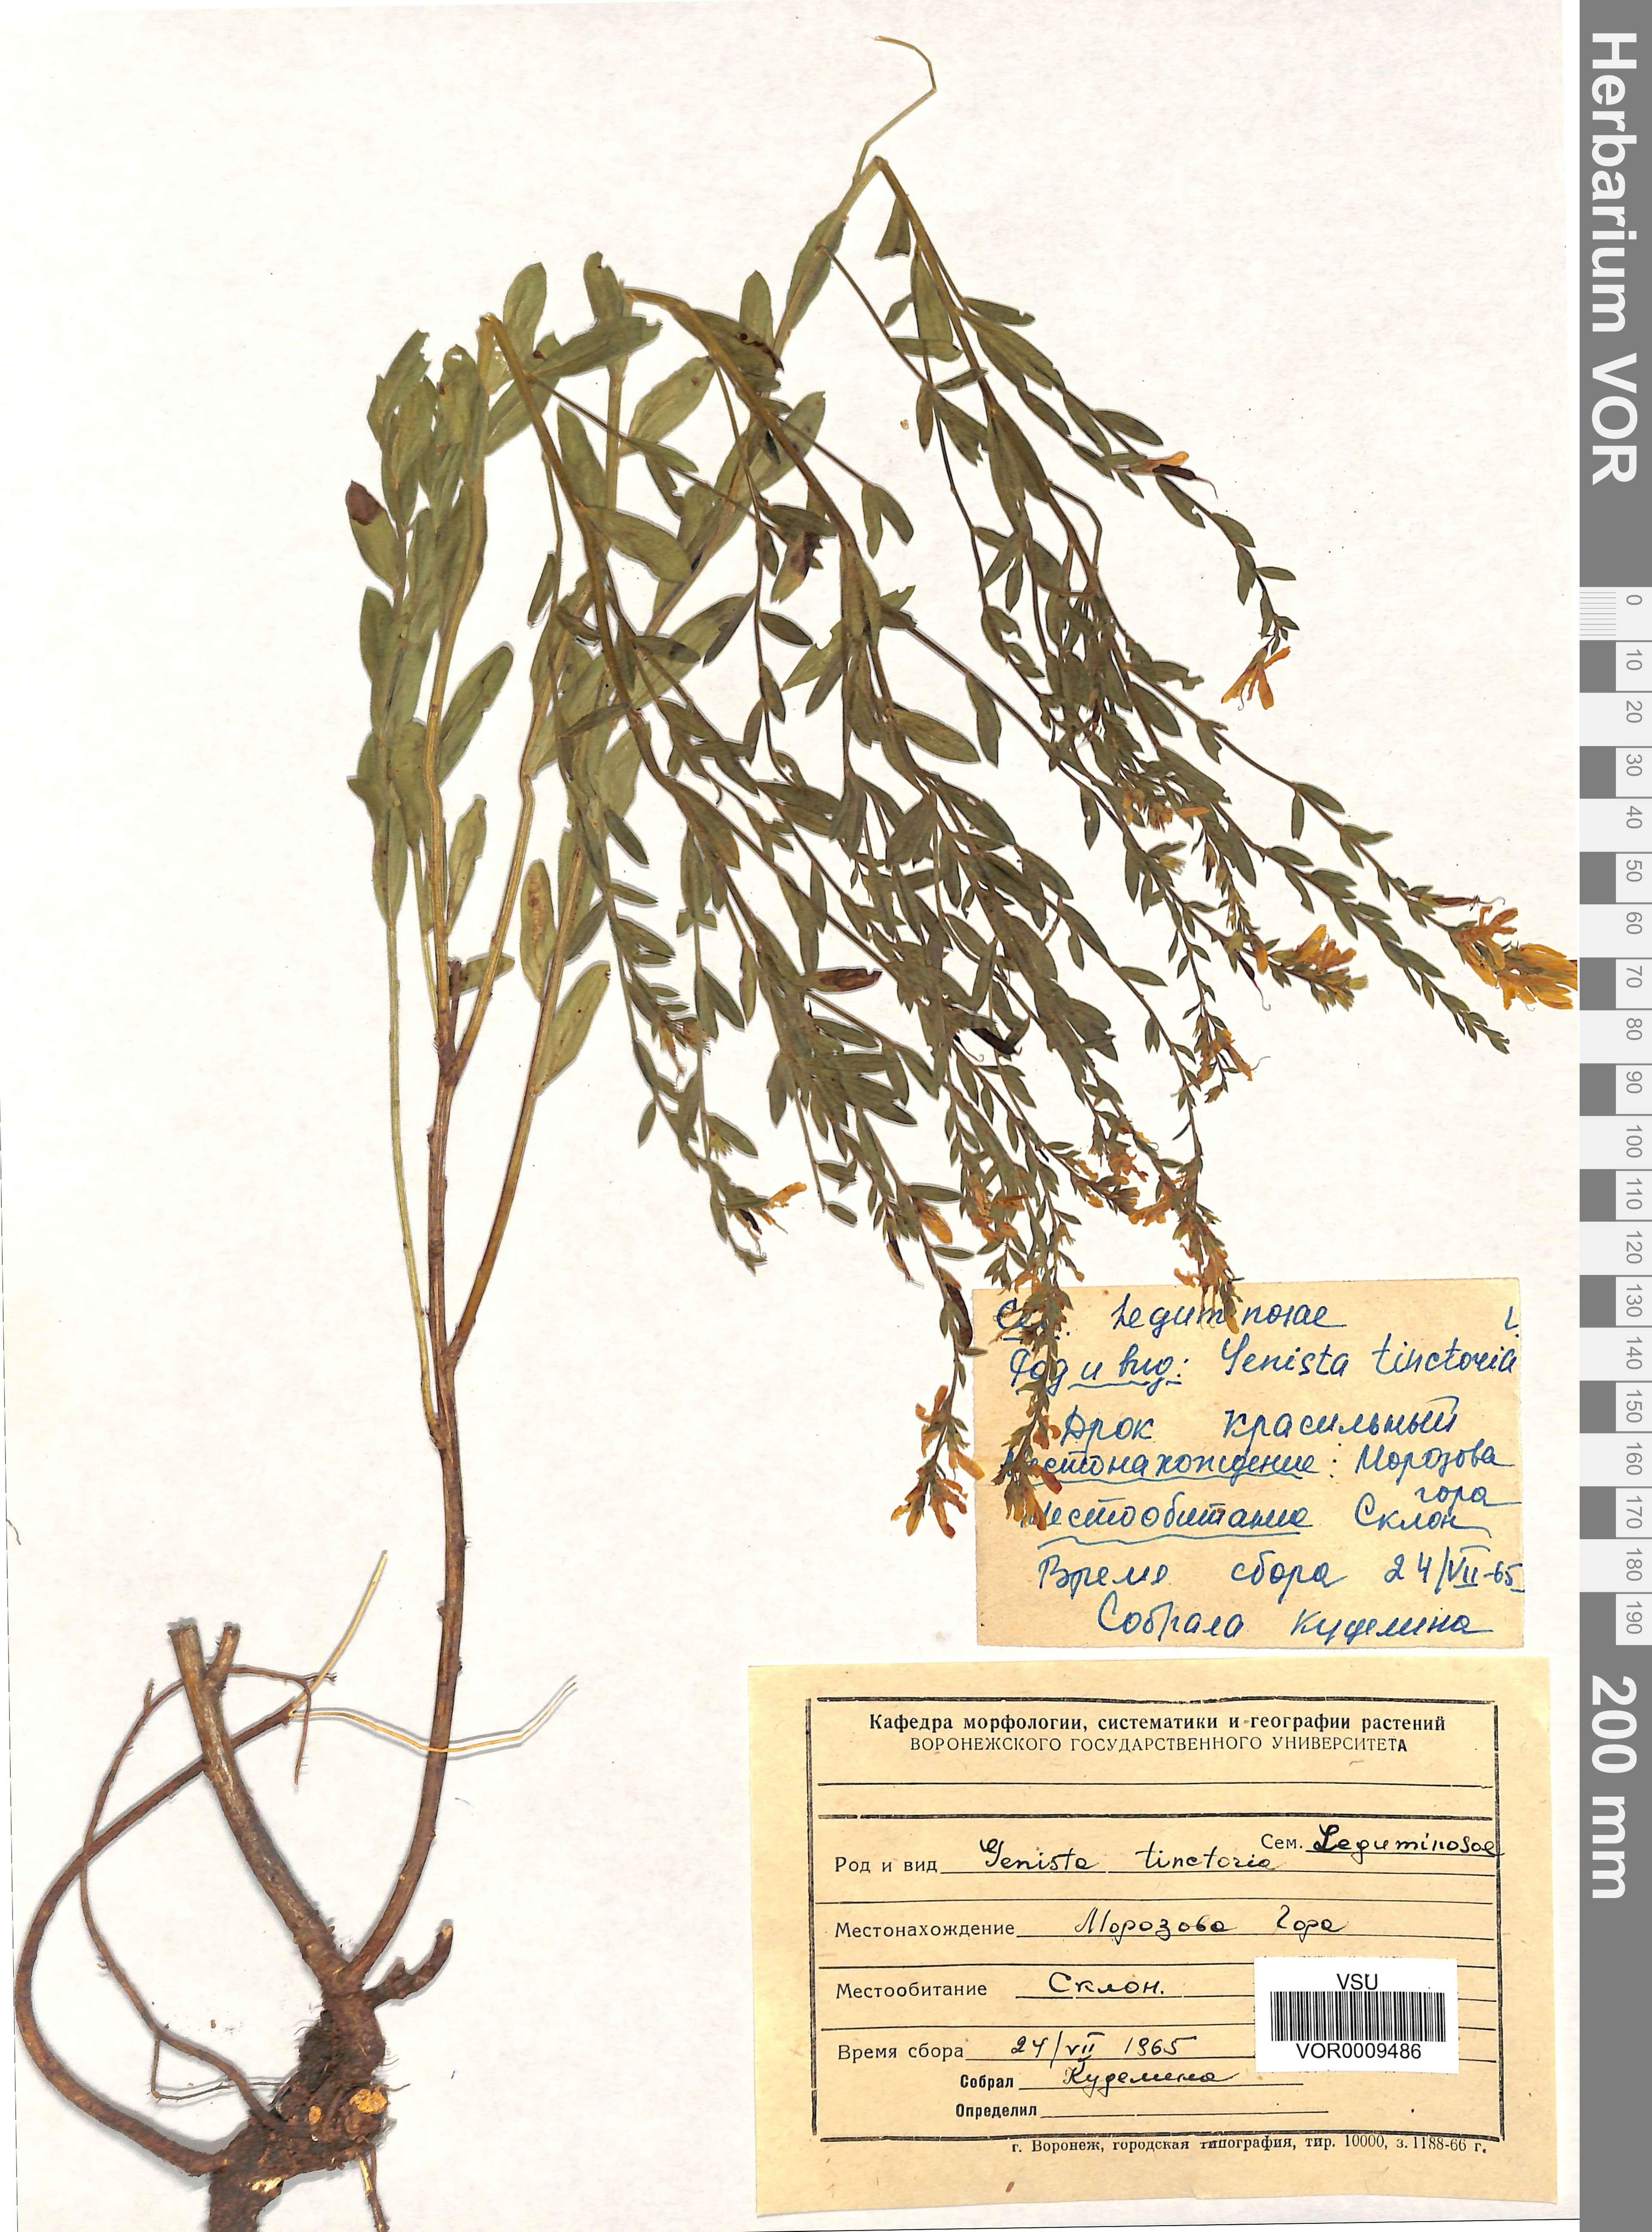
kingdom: Plantae
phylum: Tracheophyta
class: Magnoliopsida
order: Fabales
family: Fabaceae
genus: Genista
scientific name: Genista tinctoria
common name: Dyer's greenweed
